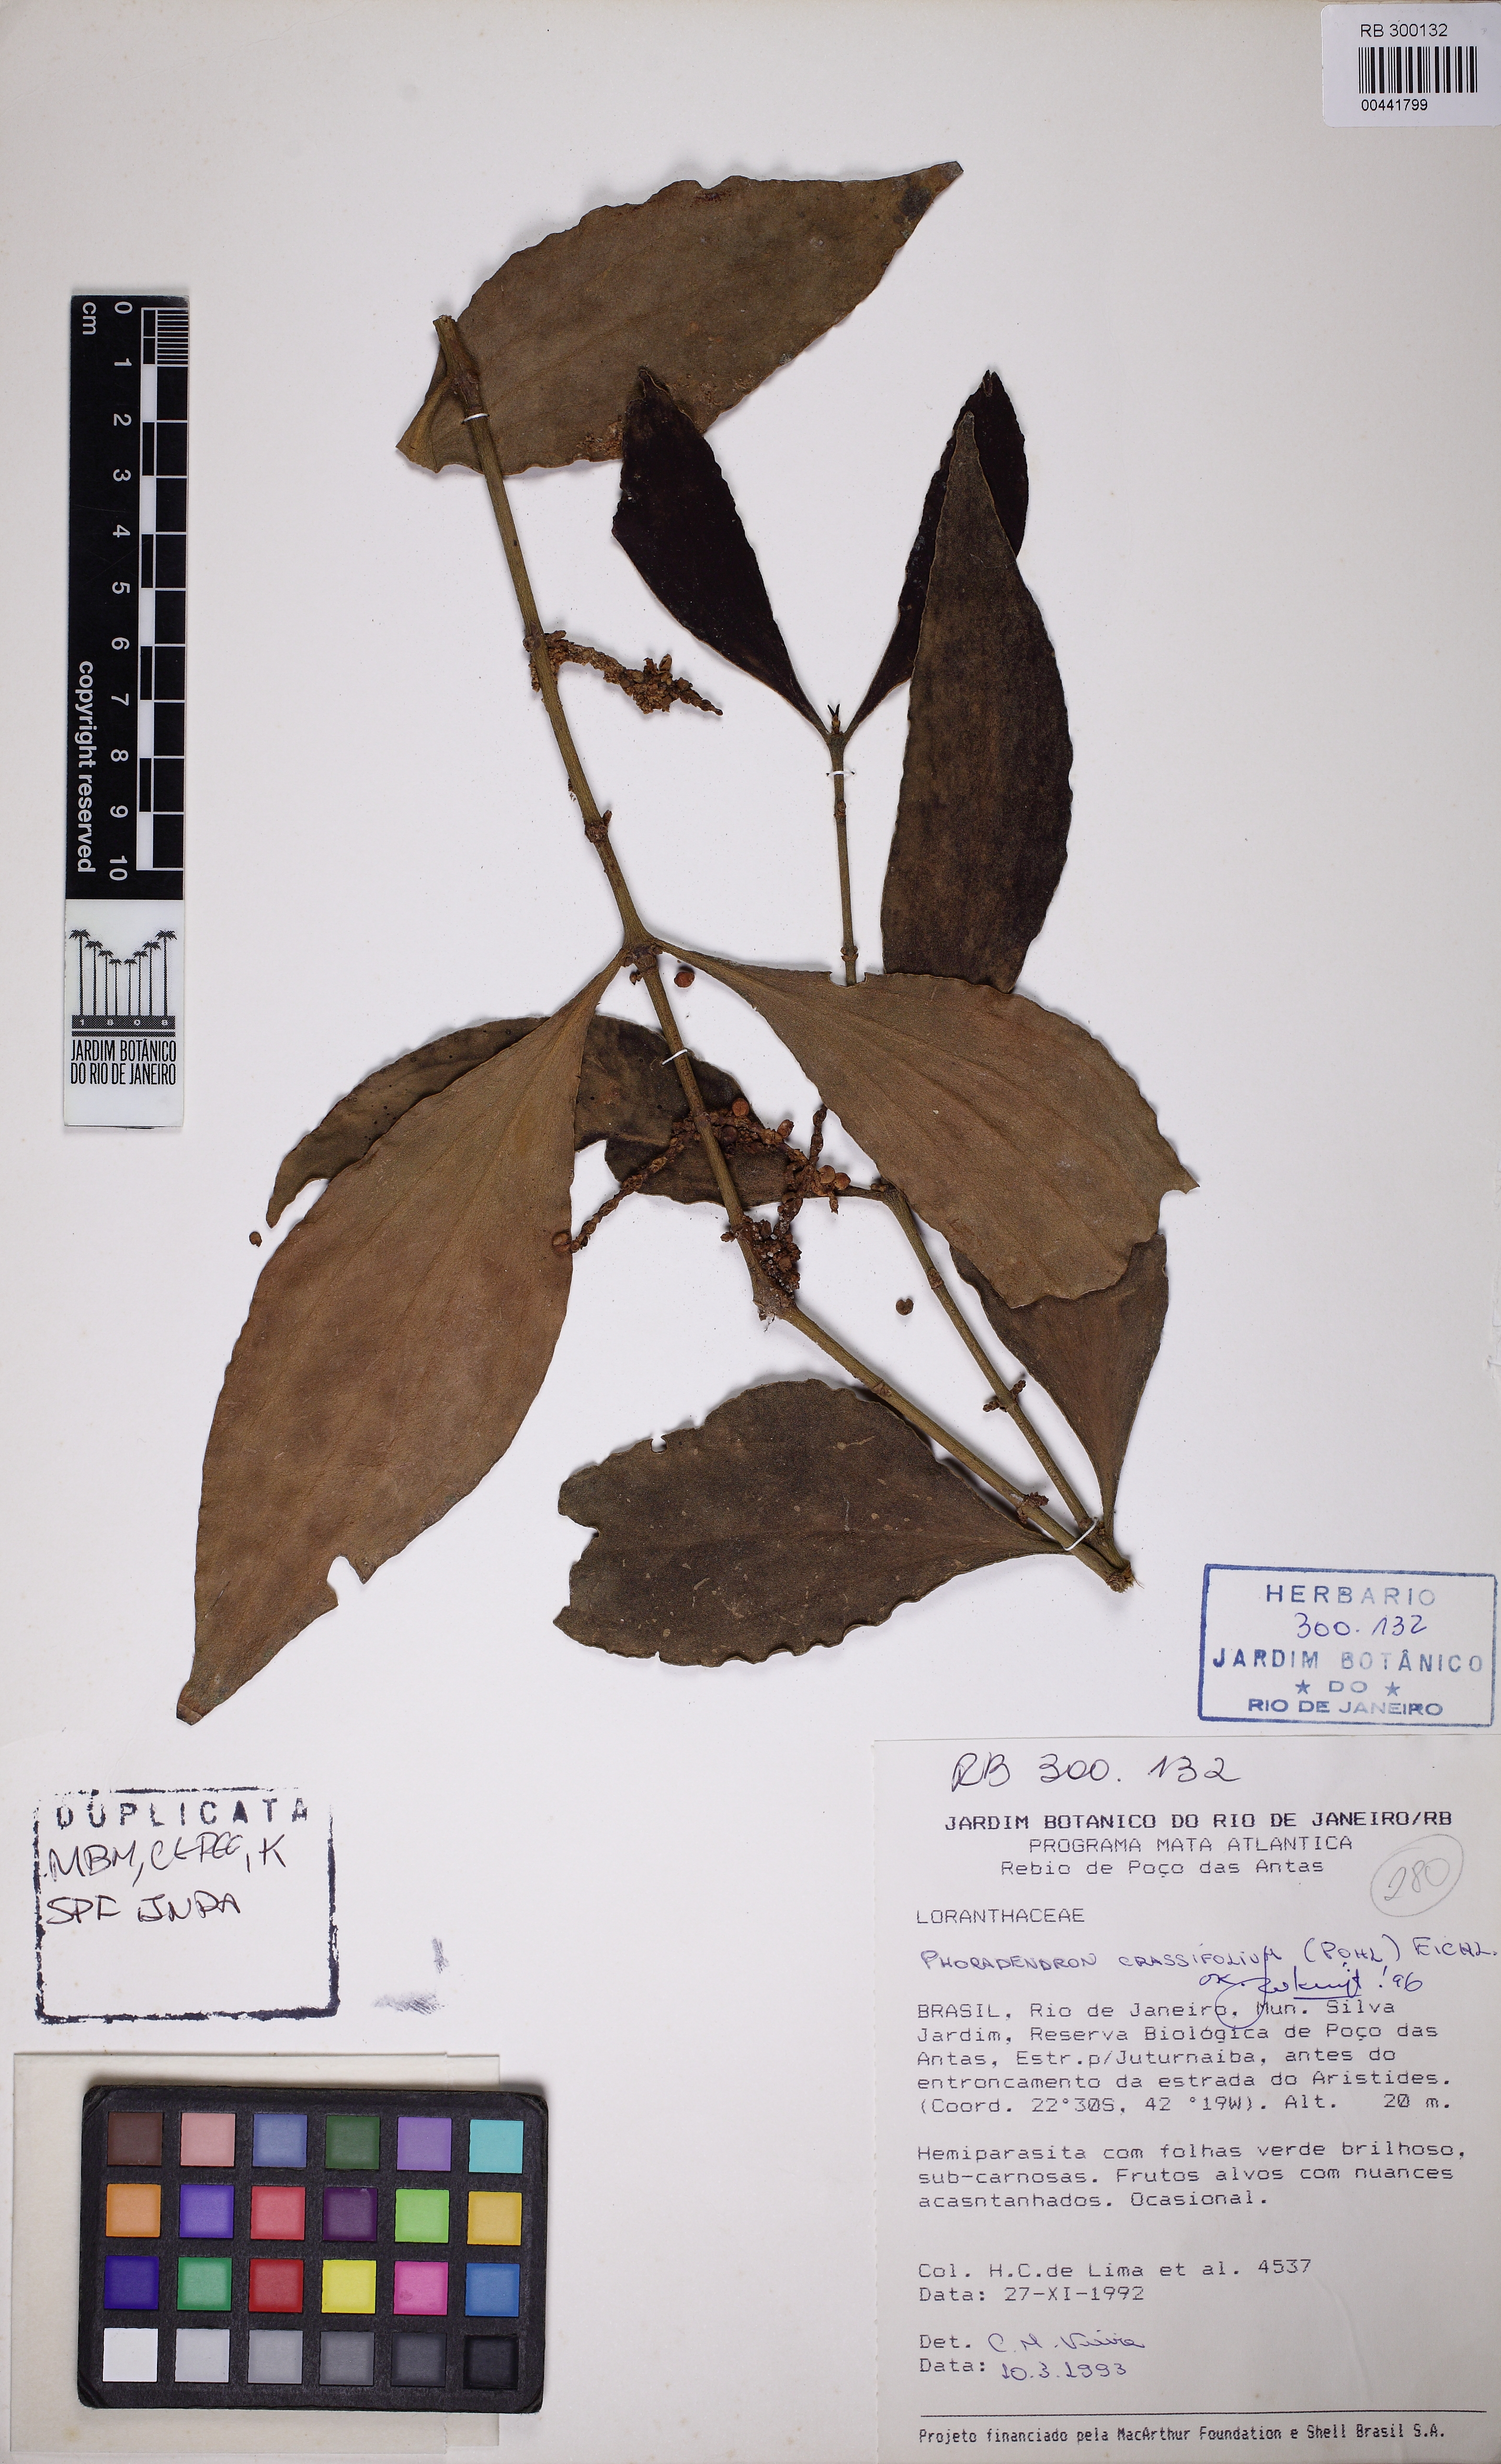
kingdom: Plantae
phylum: Tracheophyta
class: Magnoliopsida
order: Santalales
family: Viscaceae
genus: Phoradendron
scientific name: Phoradendron crassifolium
